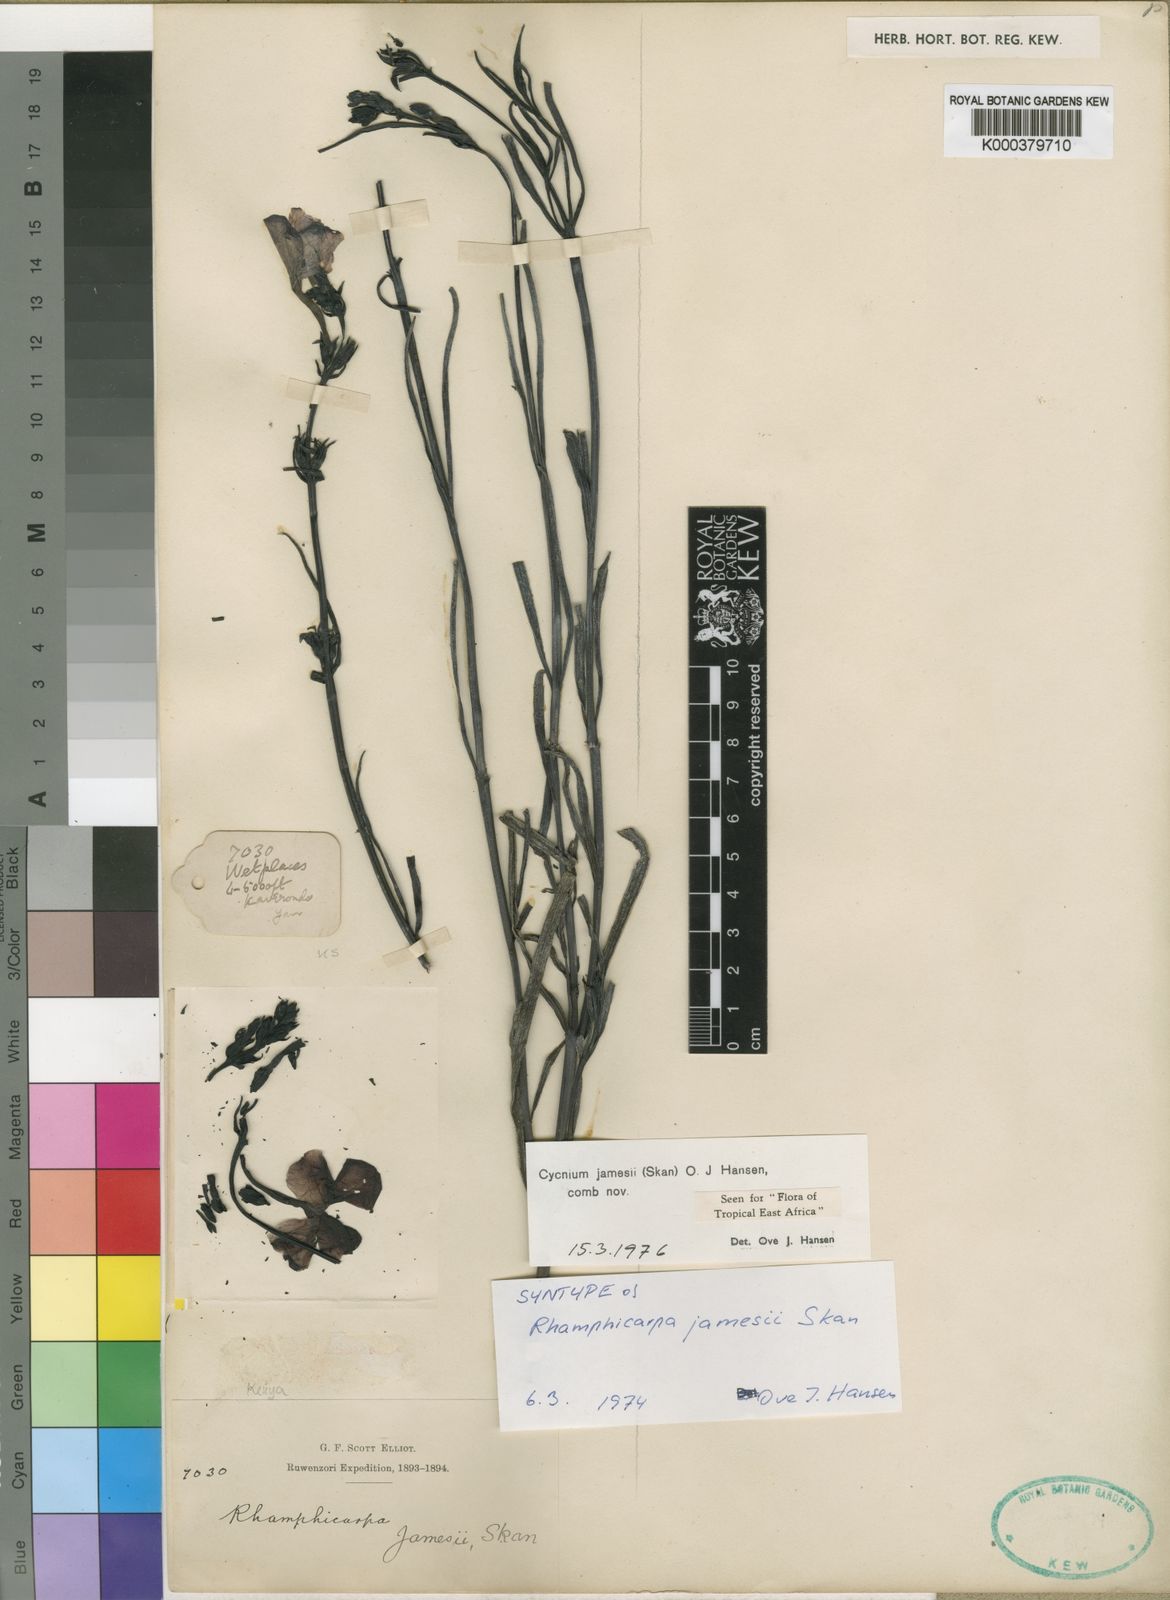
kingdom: Plantae
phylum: Tracheophyta
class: Magnoliopsida
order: Lamiales
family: Orobanchaceae
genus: Cycnium
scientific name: Cycnium jamesii
